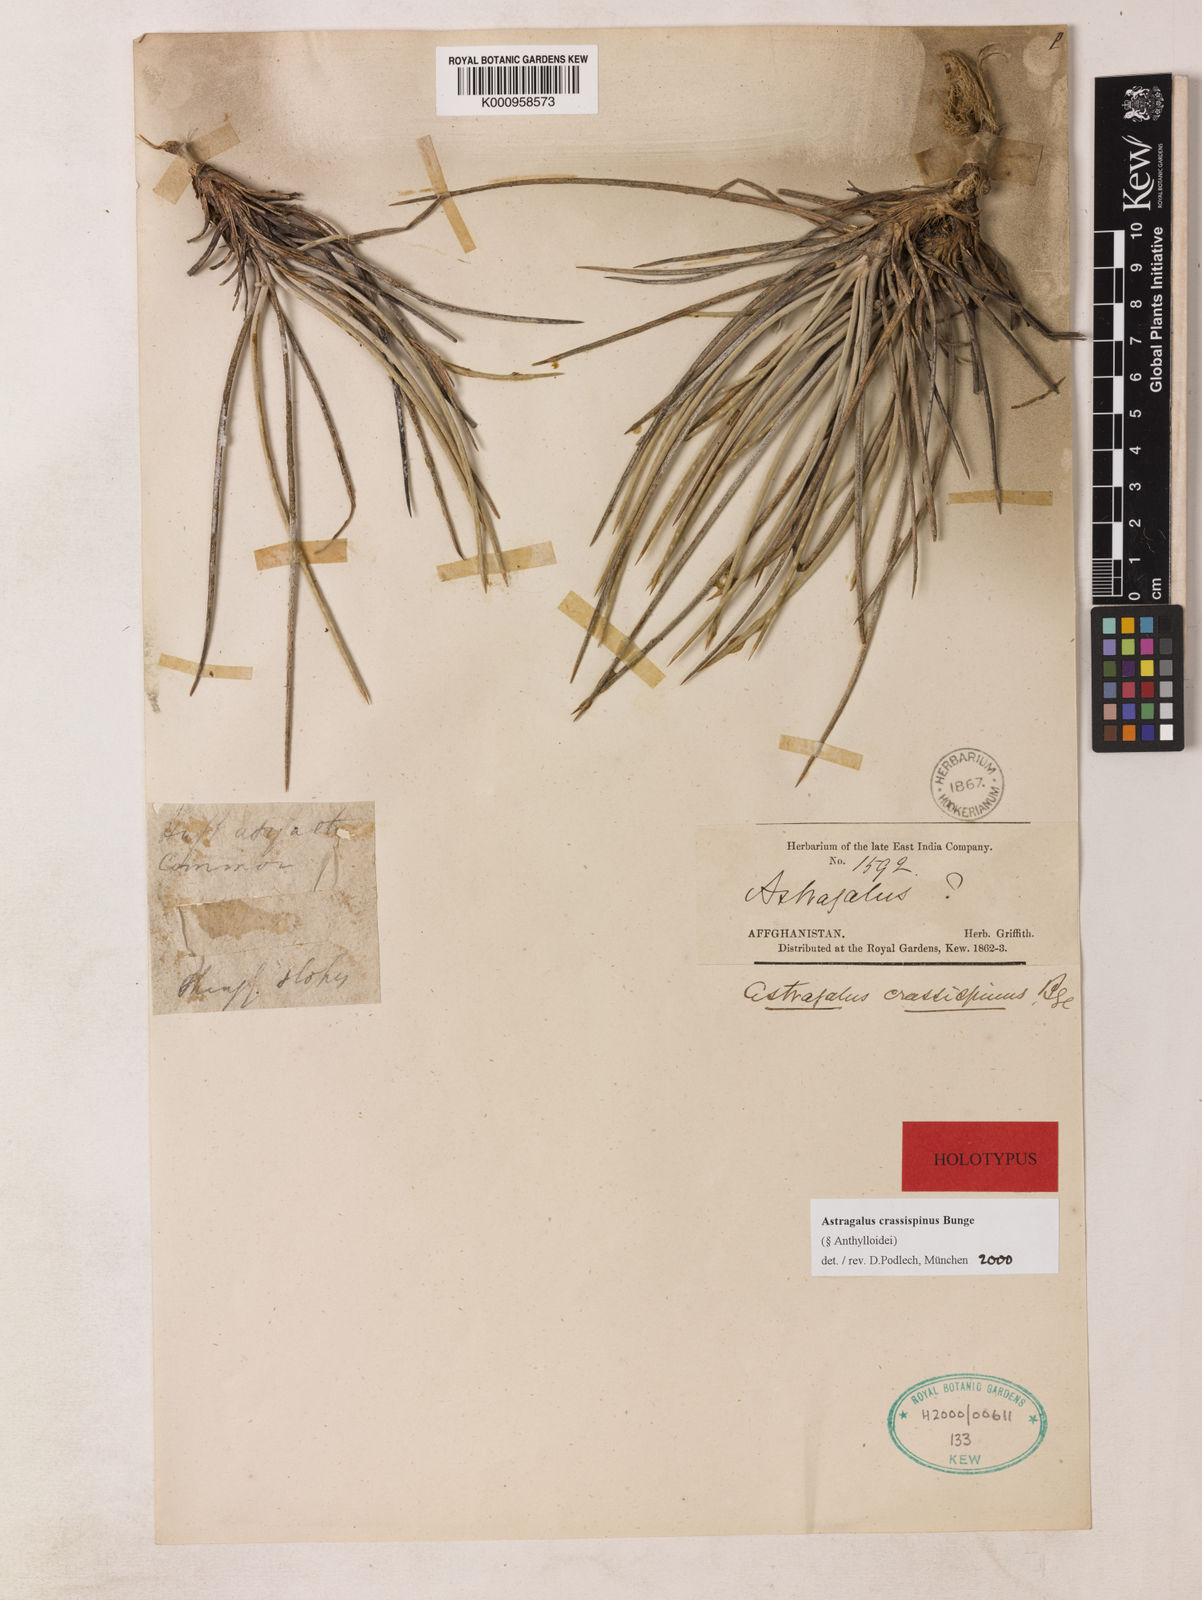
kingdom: Plantae
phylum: Tracheophyta
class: Magnoliopsida
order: Fabales
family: Fabaceae
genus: Astragalus
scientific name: Astragalus crassispinus
